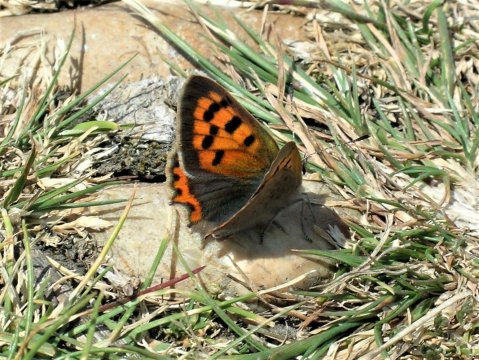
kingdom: Animalia
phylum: Arthropoda
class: Insecta
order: Lepidoptera
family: Lycaenidae
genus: Lycaena
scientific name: Lycaena phlaeas
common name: American Copper
